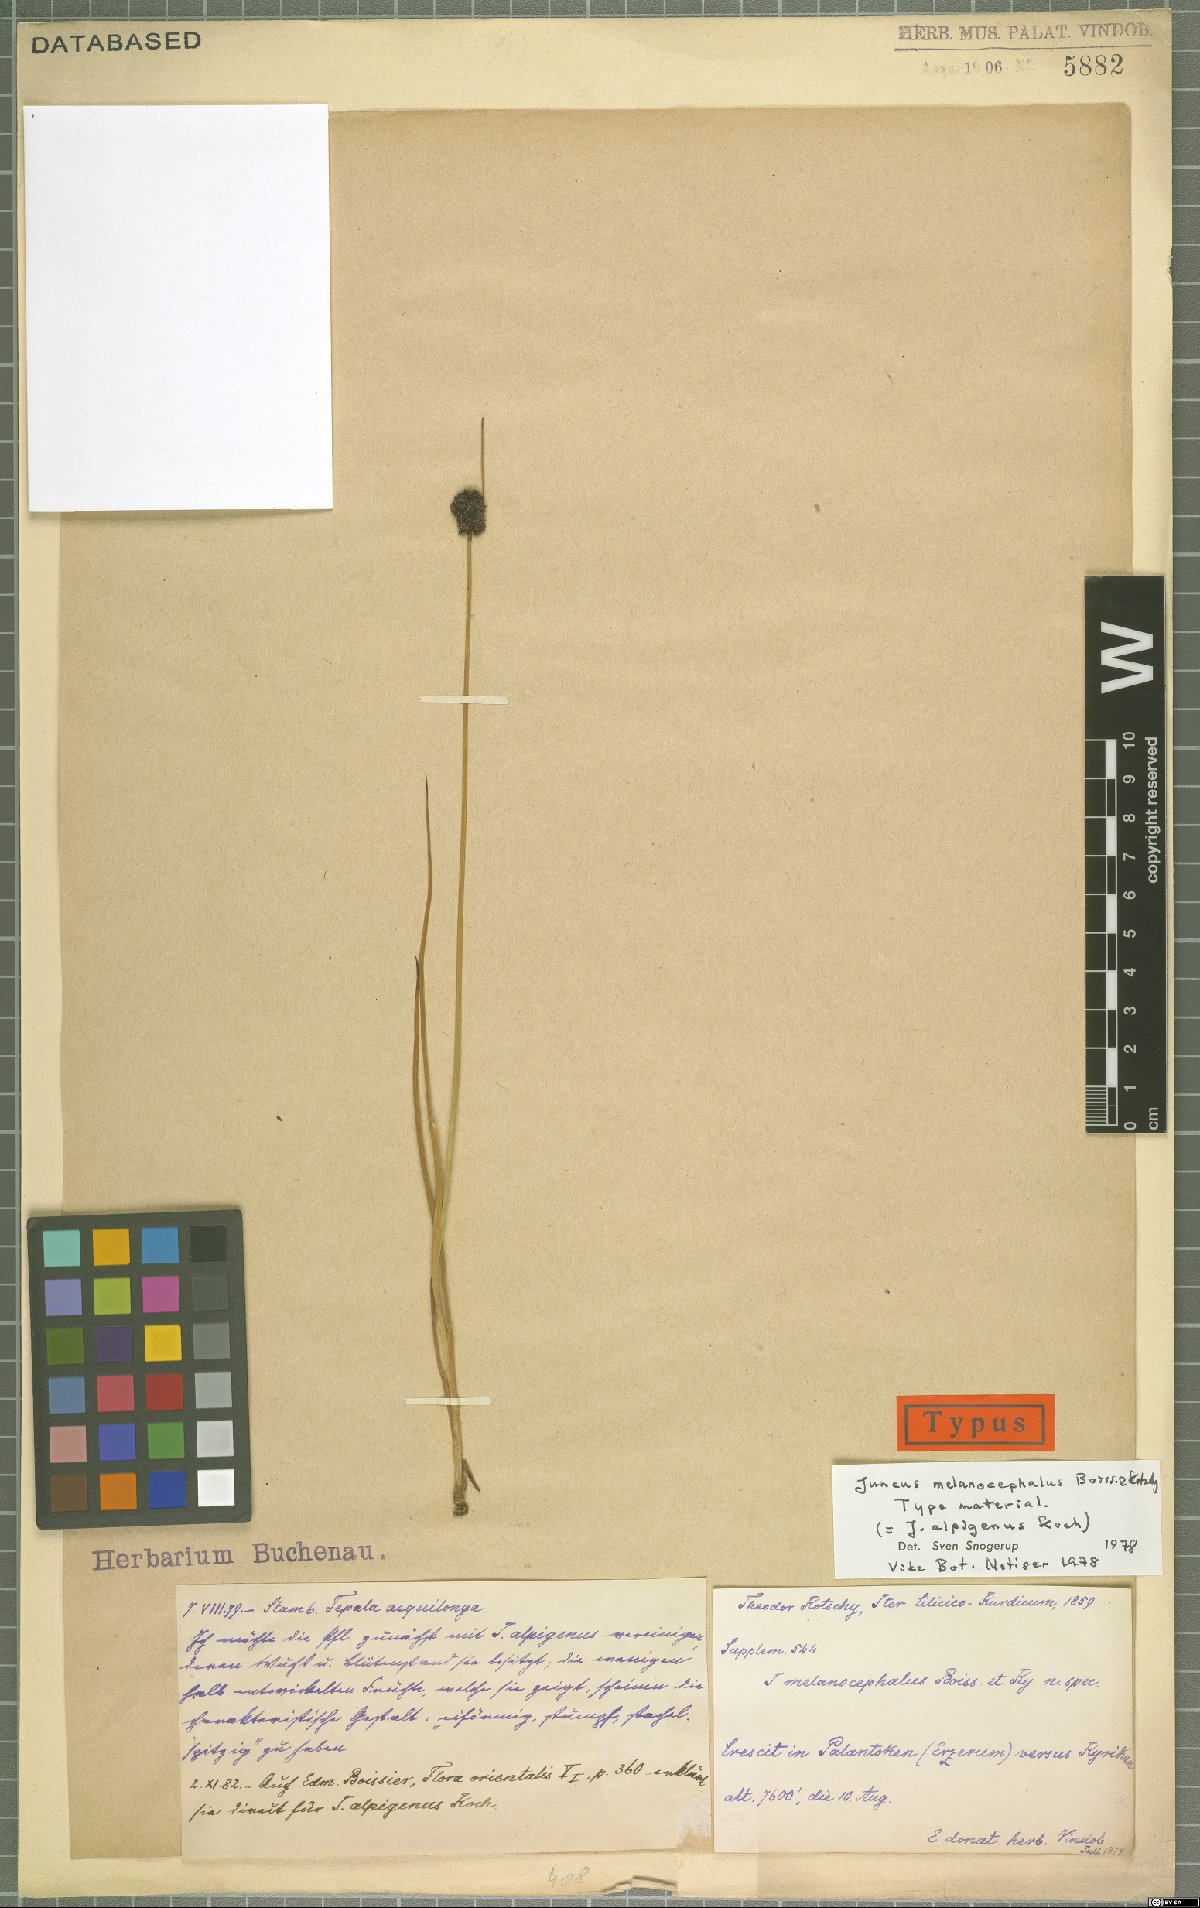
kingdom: Plantae
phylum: Tracheophyta
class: Liliopsida
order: Poales
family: Juncaceae
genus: Juncus
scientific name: Juncus alpigenus
